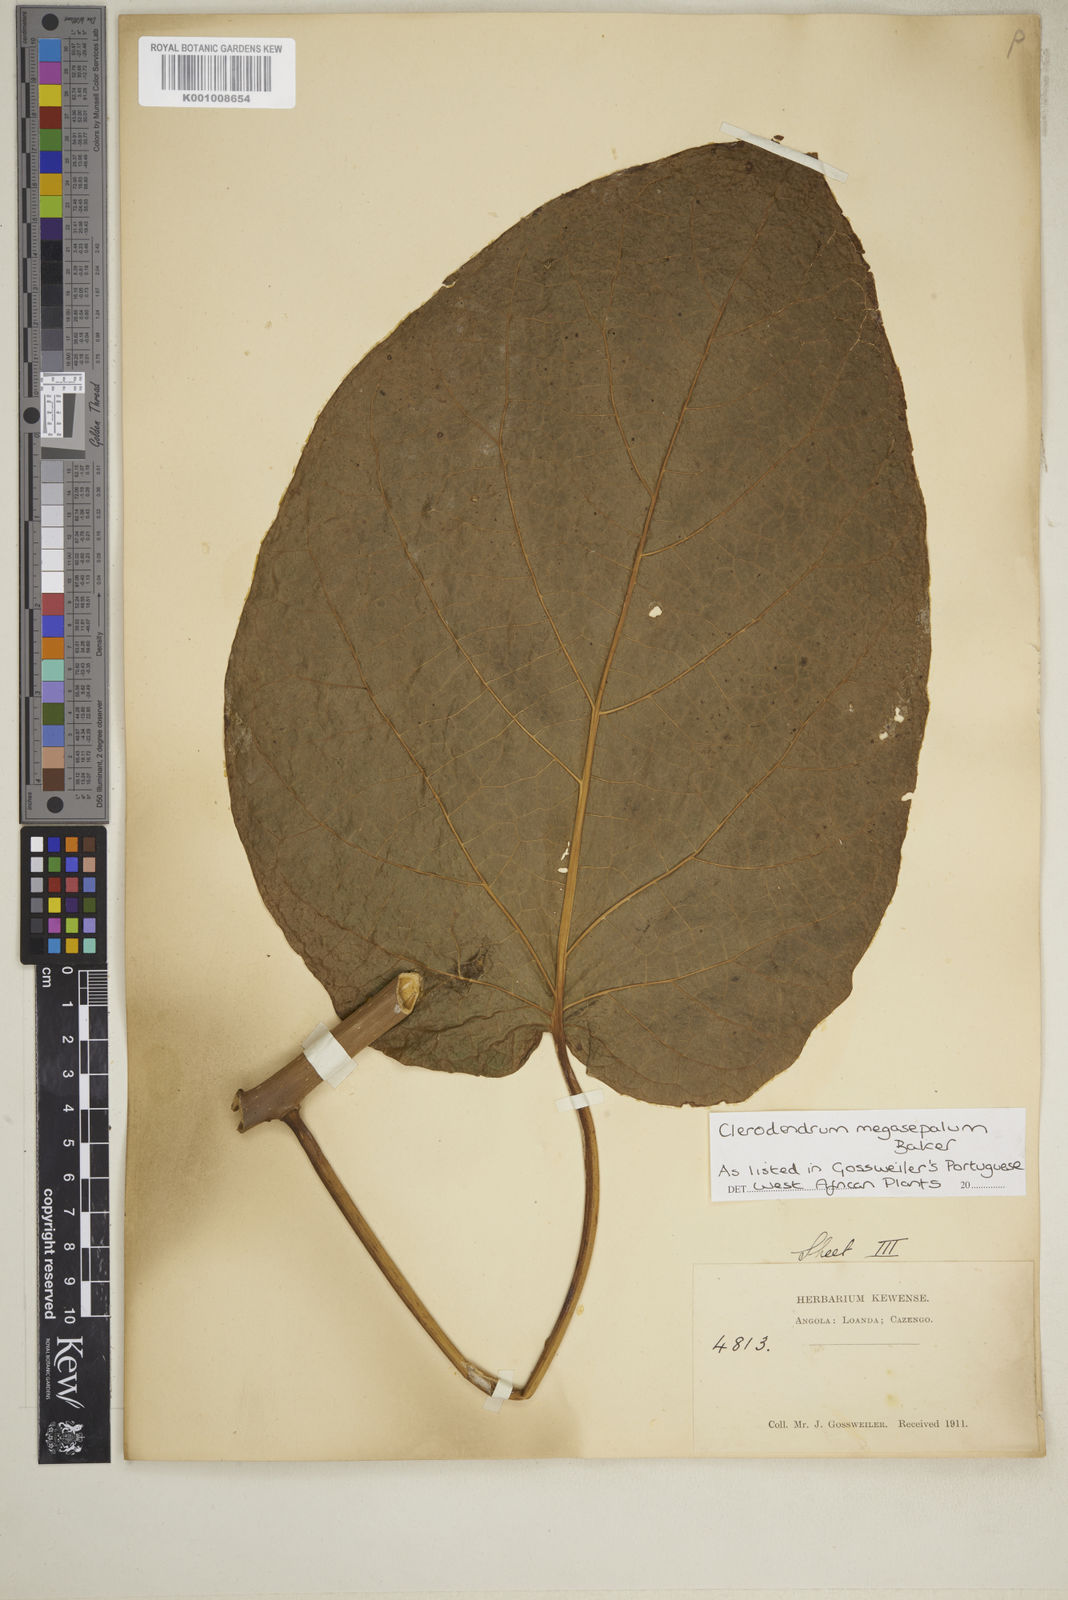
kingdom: Plantae
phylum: Tracheophyta
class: Magnoliopsida
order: Lamiales
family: Lamiaceae
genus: Clerodendrum
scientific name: Clerodendrum poggei
